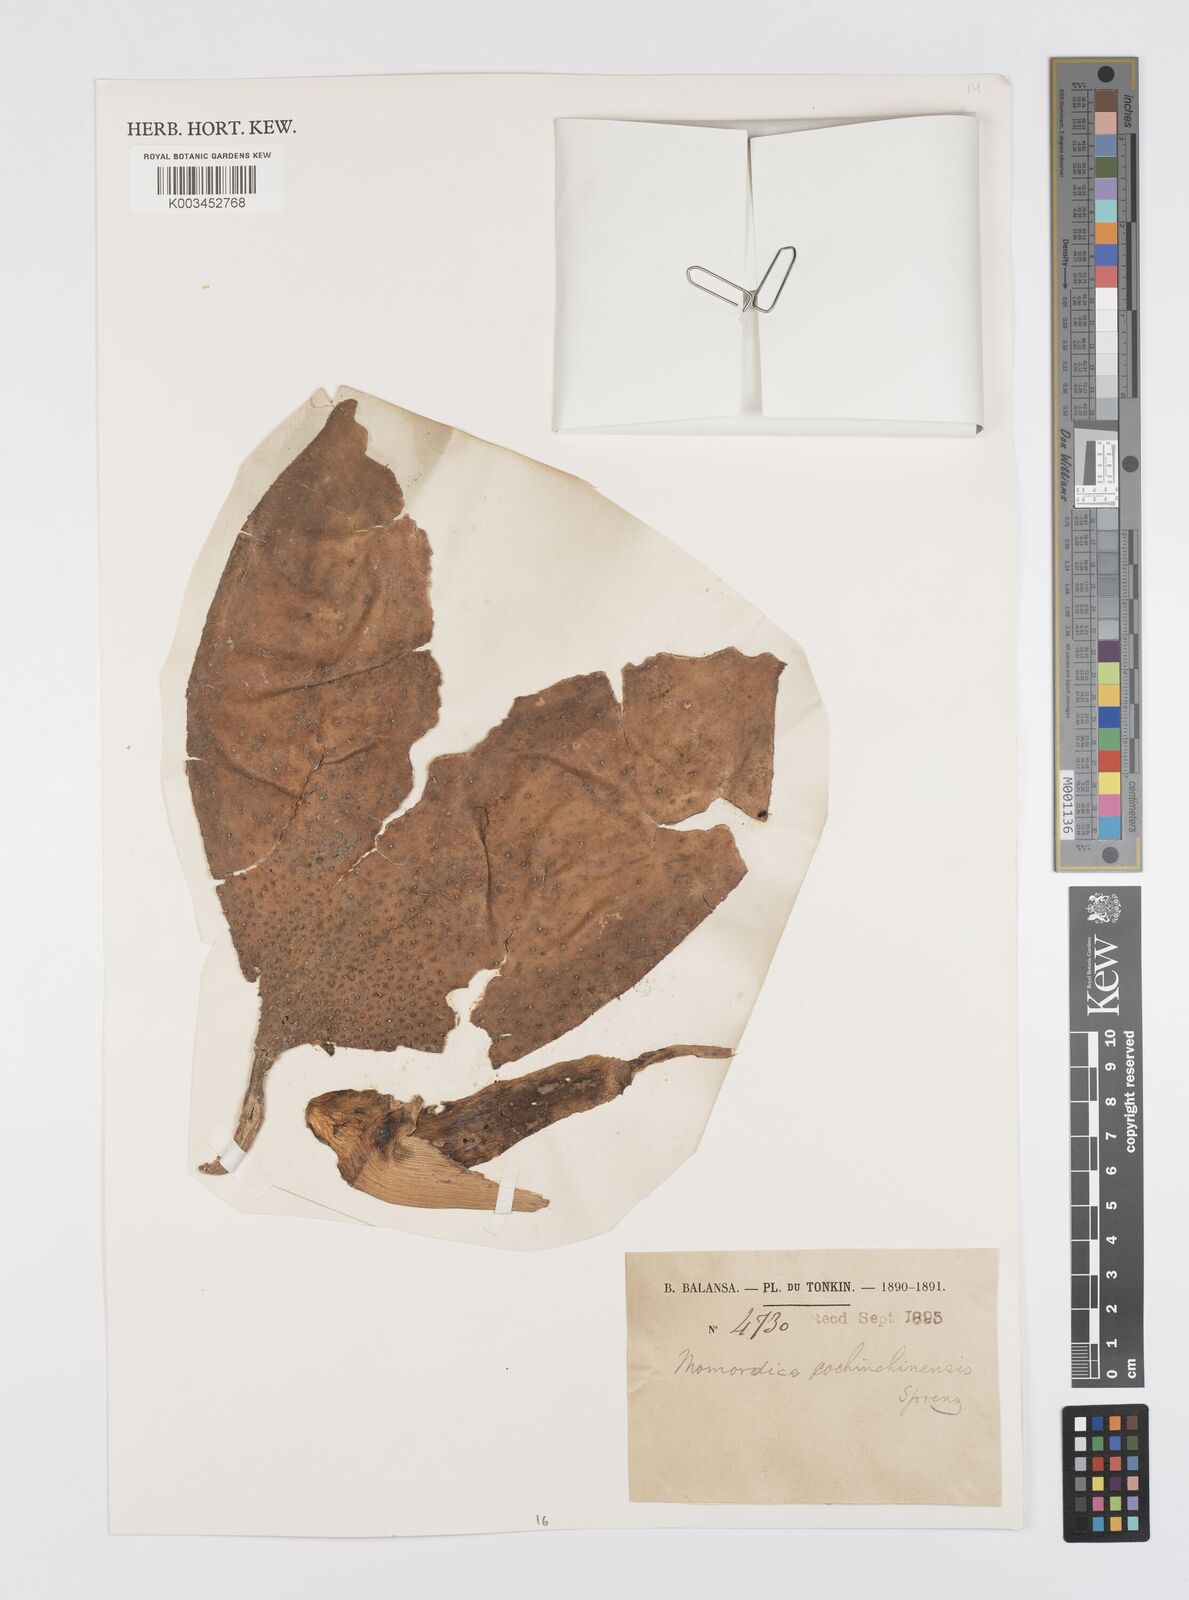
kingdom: Plantae
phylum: Tracheophyta
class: Magnoliopsida
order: Cucurbitales
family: Cucurbitaceae
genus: Momordica
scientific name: Momordica cochinchinensis
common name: Chinese bitter-cucumber
